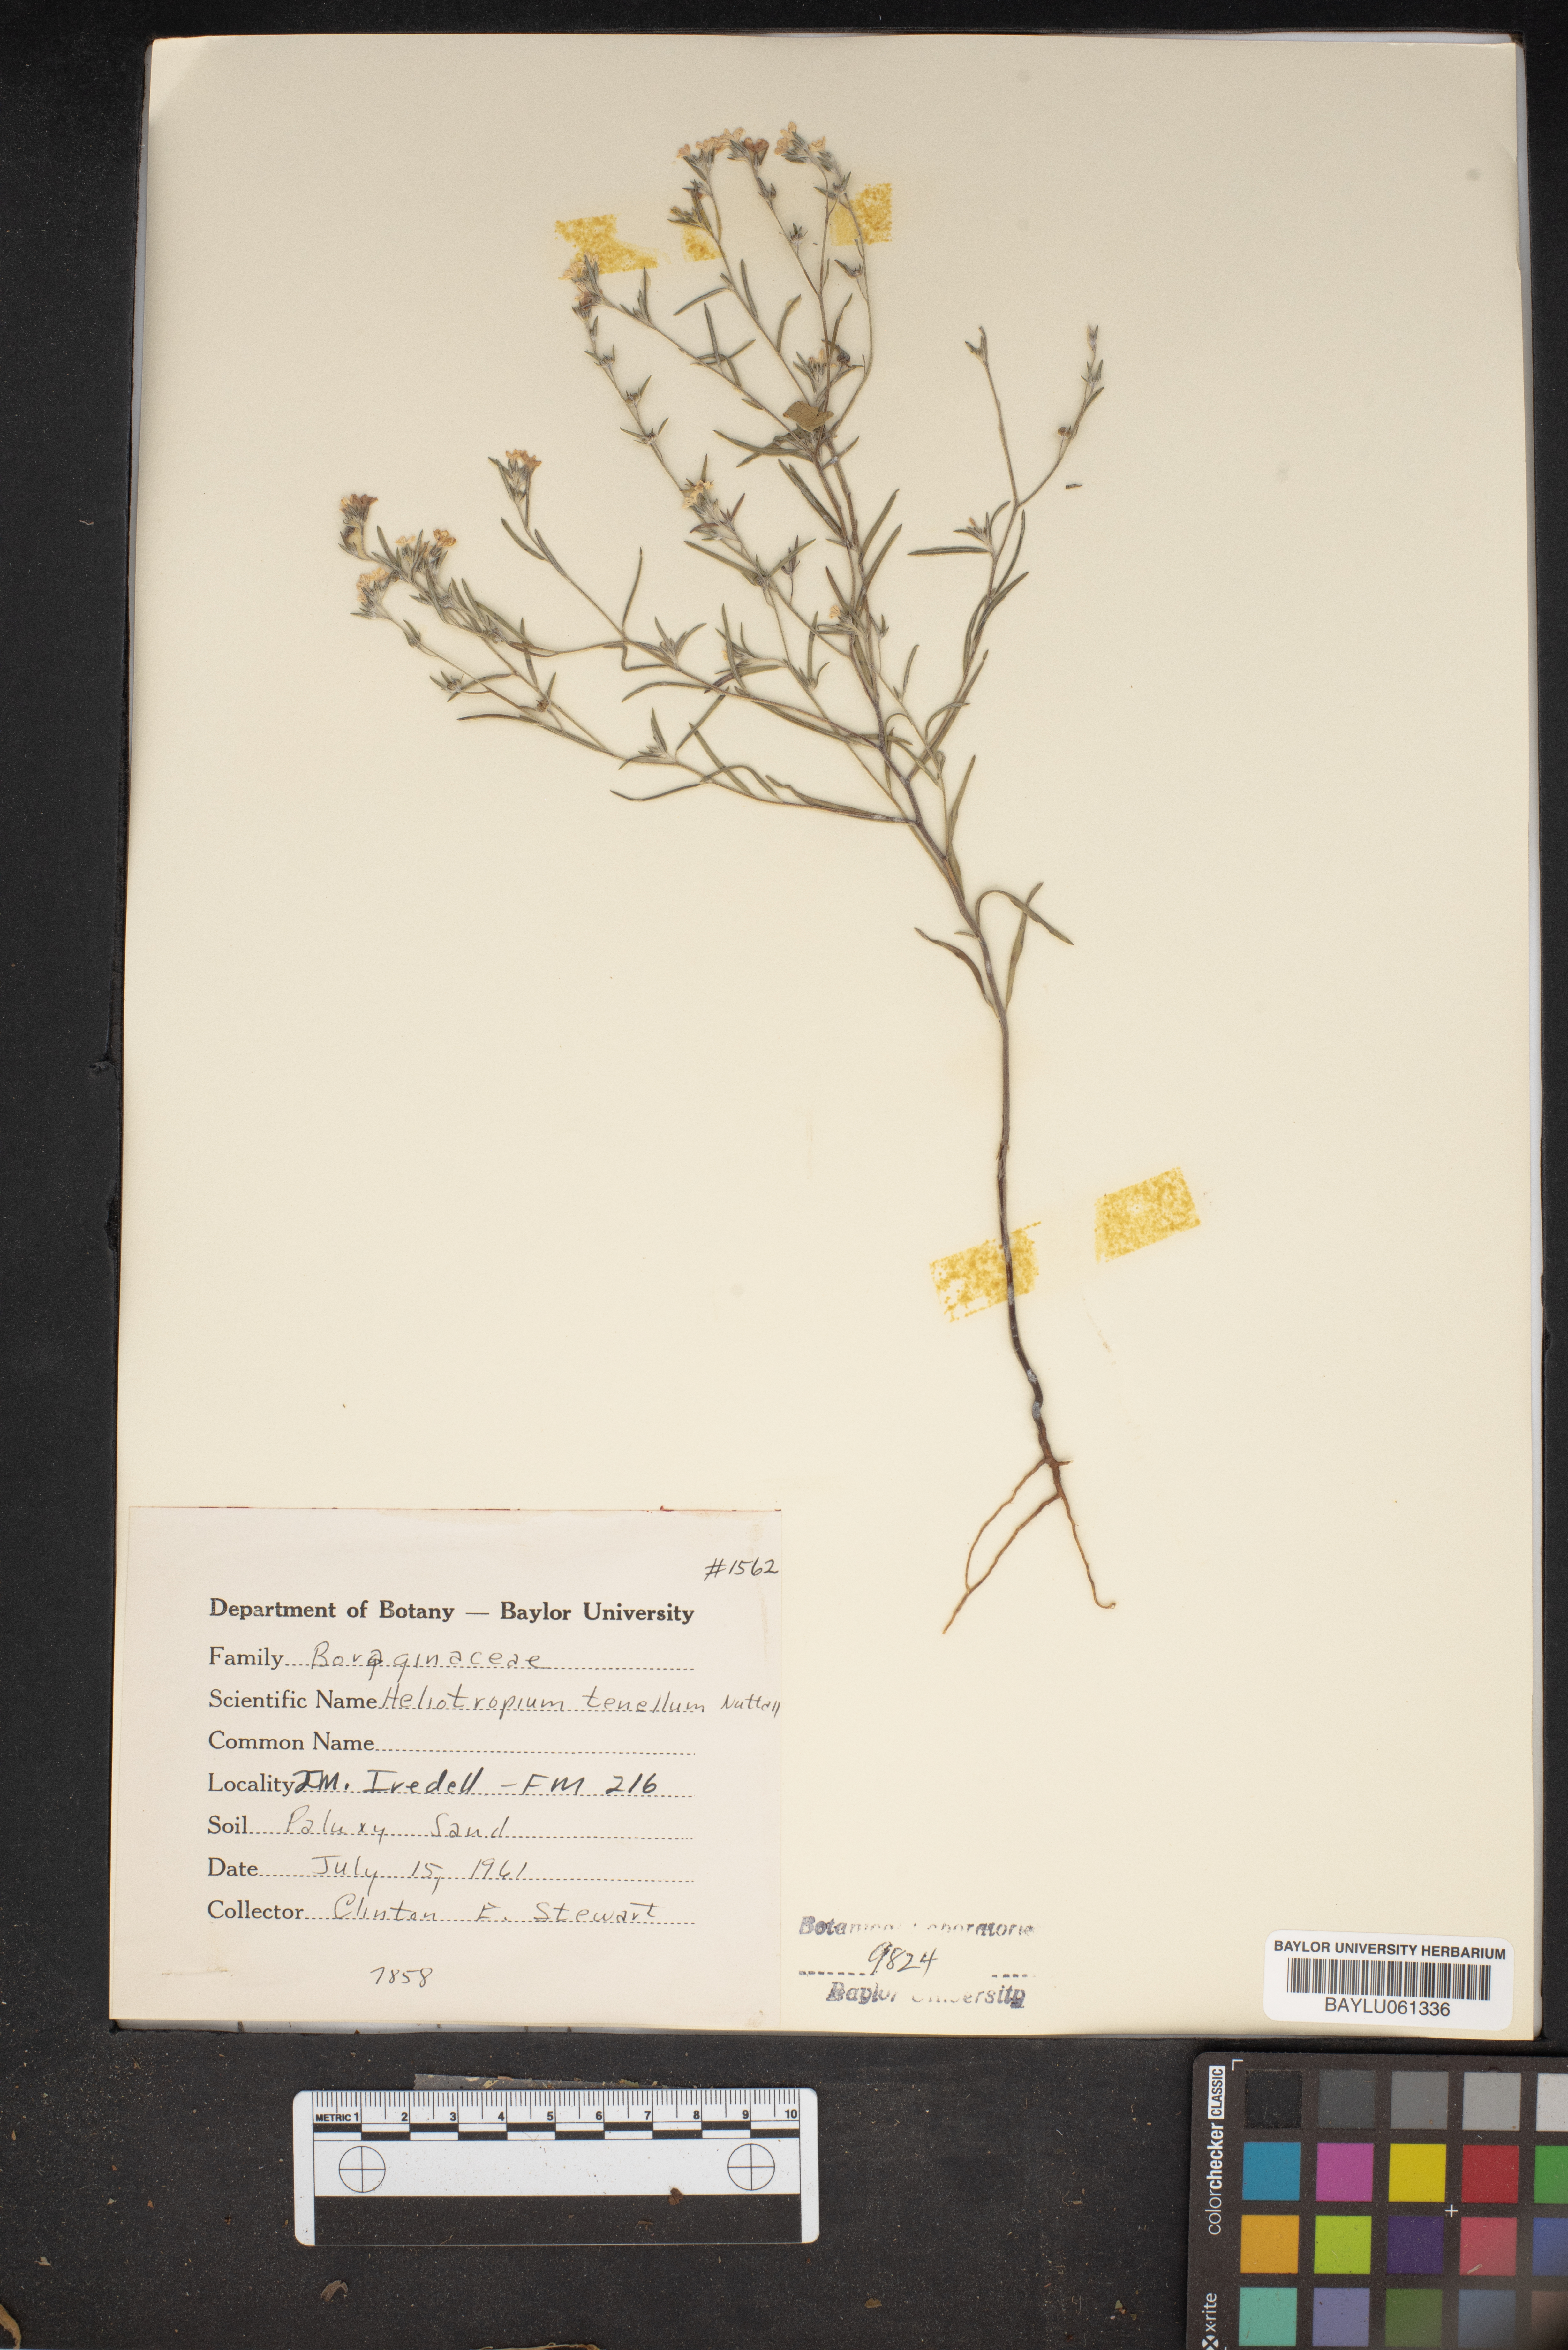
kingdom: Plantae
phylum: Tracheophyta
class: Magnoliopsida
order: Boraginales
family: Heliotropiaceae
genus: Euploca
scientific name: Euploca tenella
